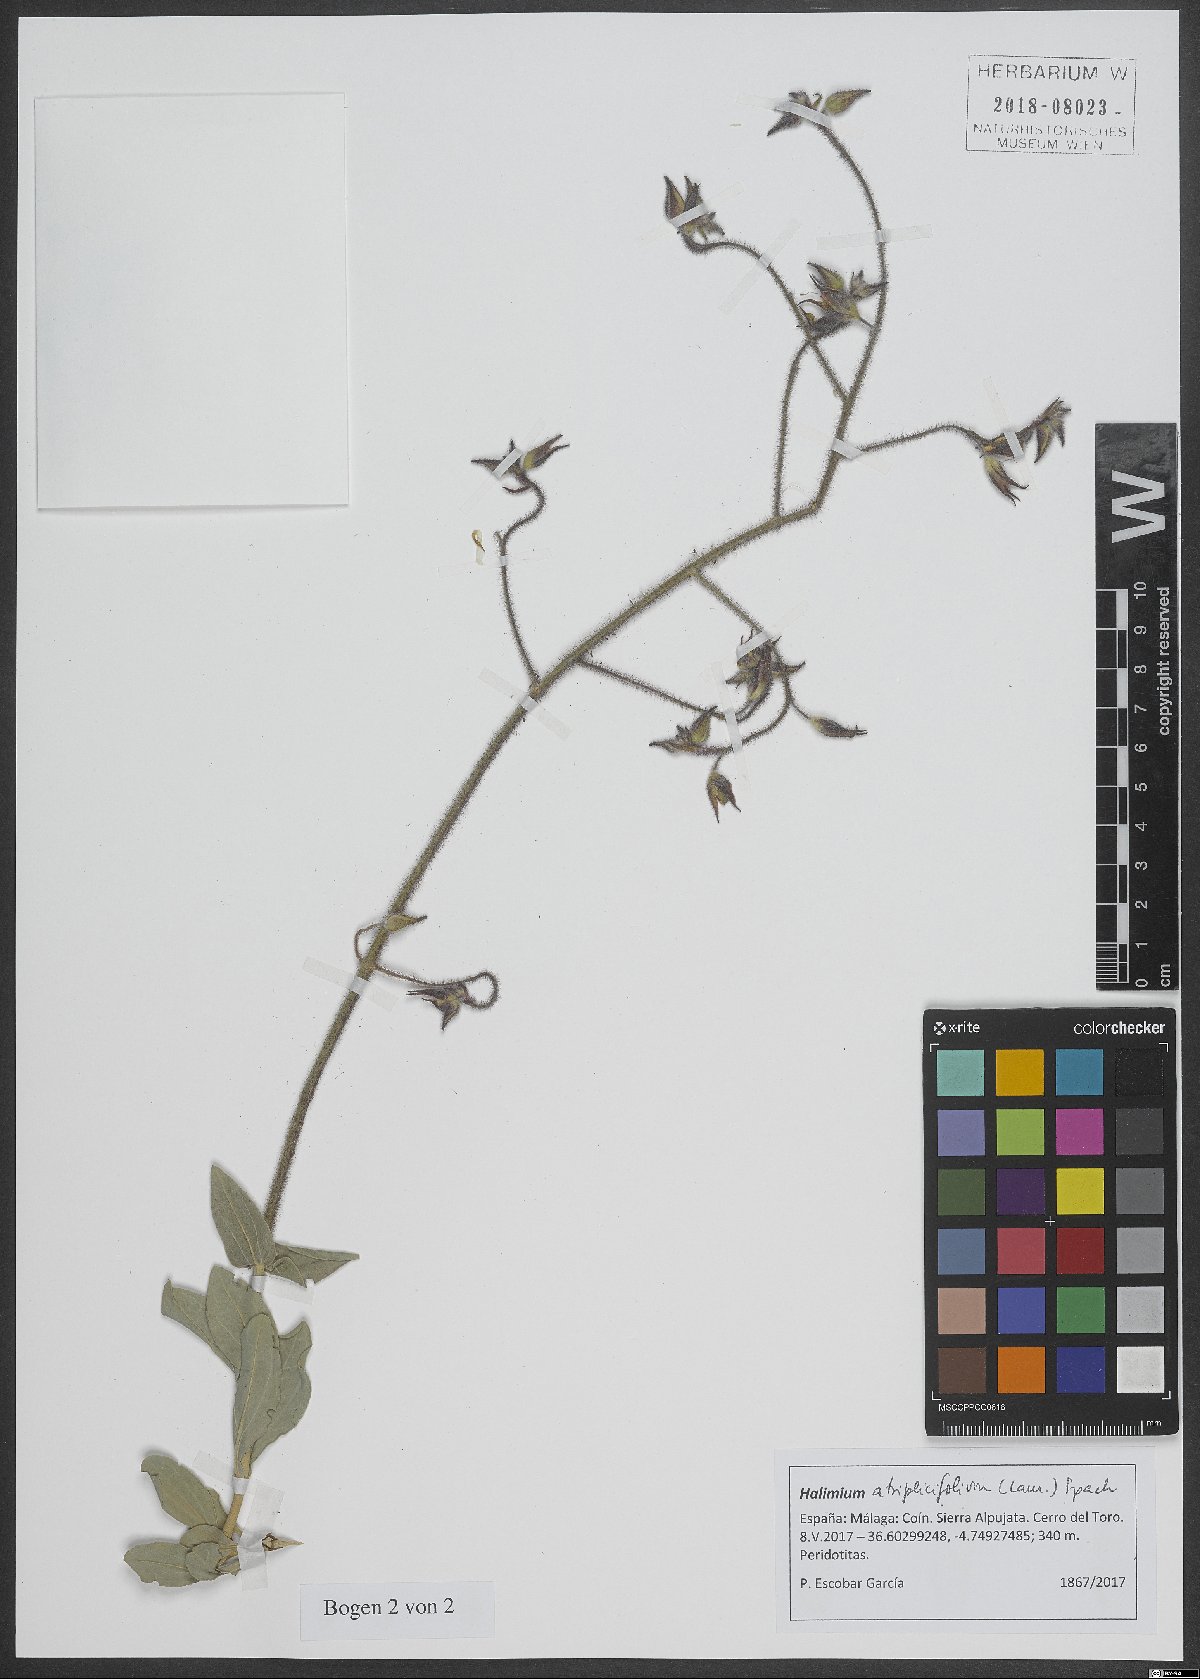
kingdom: Plantae
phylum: Tracheophyta
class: Magnoliopsida
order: Malvales
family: Cistaceae
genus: Halimium
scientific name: Halimium atriplicifolium
